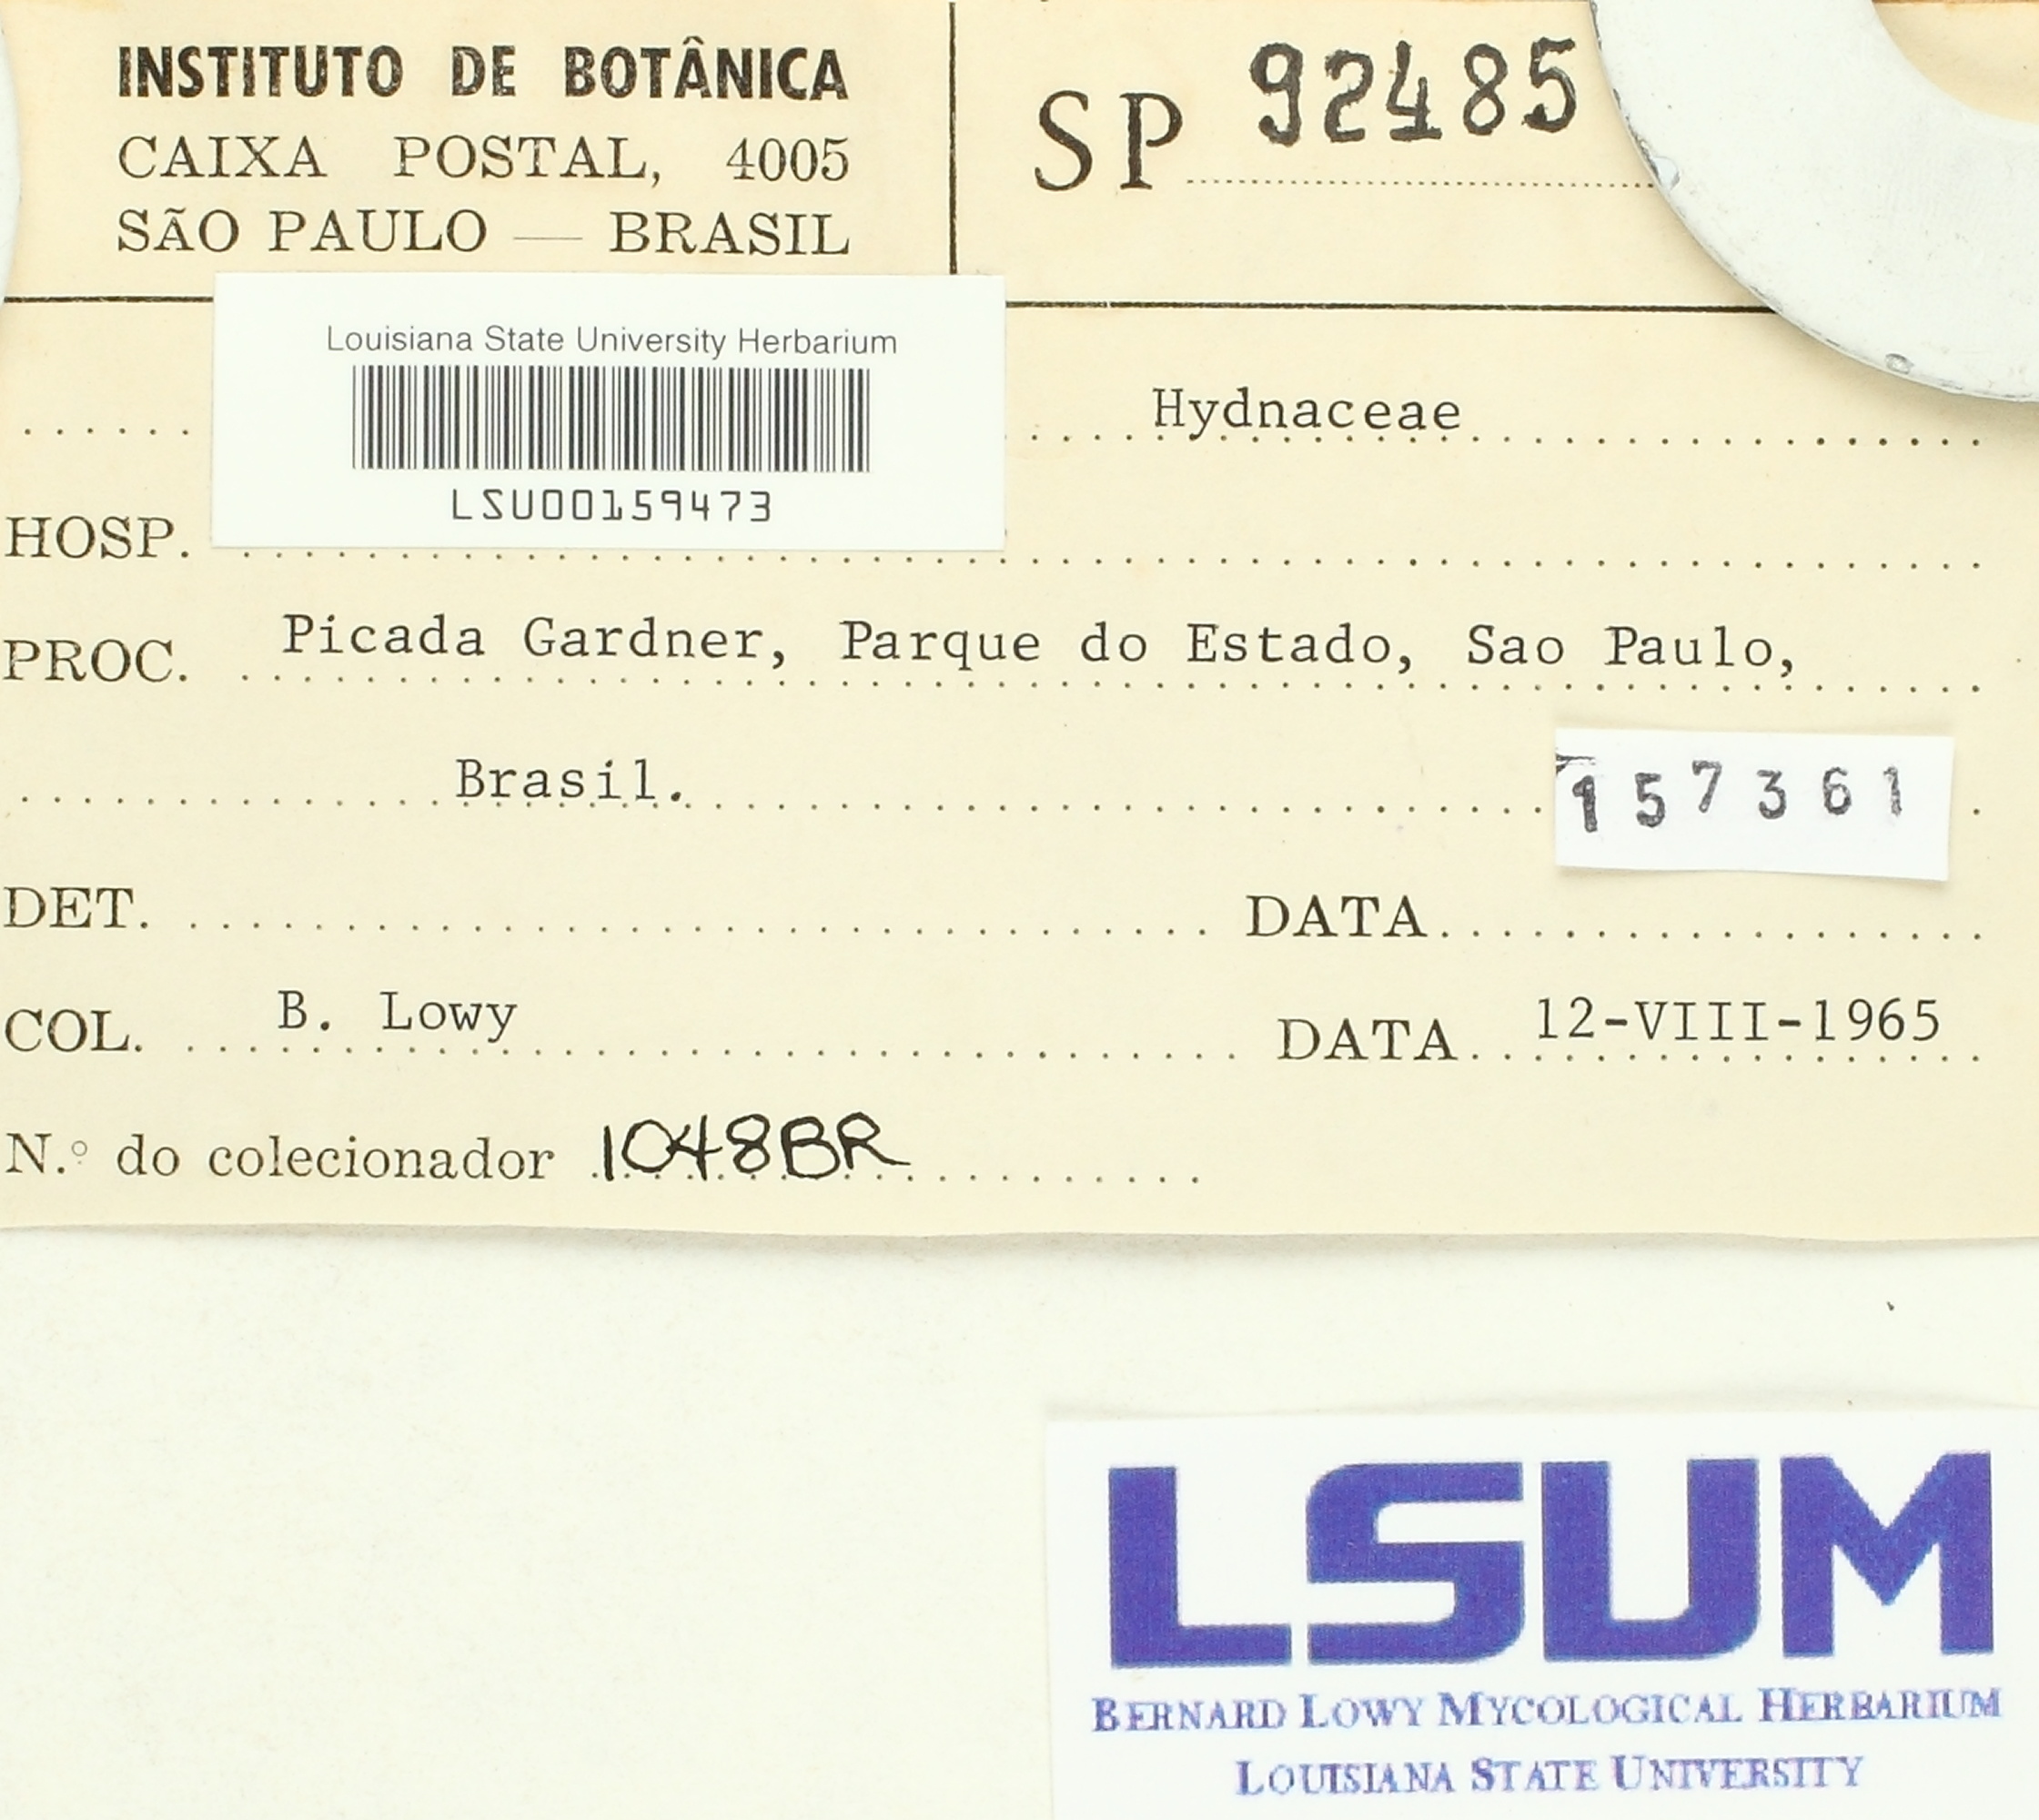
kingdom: Fungi
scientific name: Fungi
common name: Fungi
